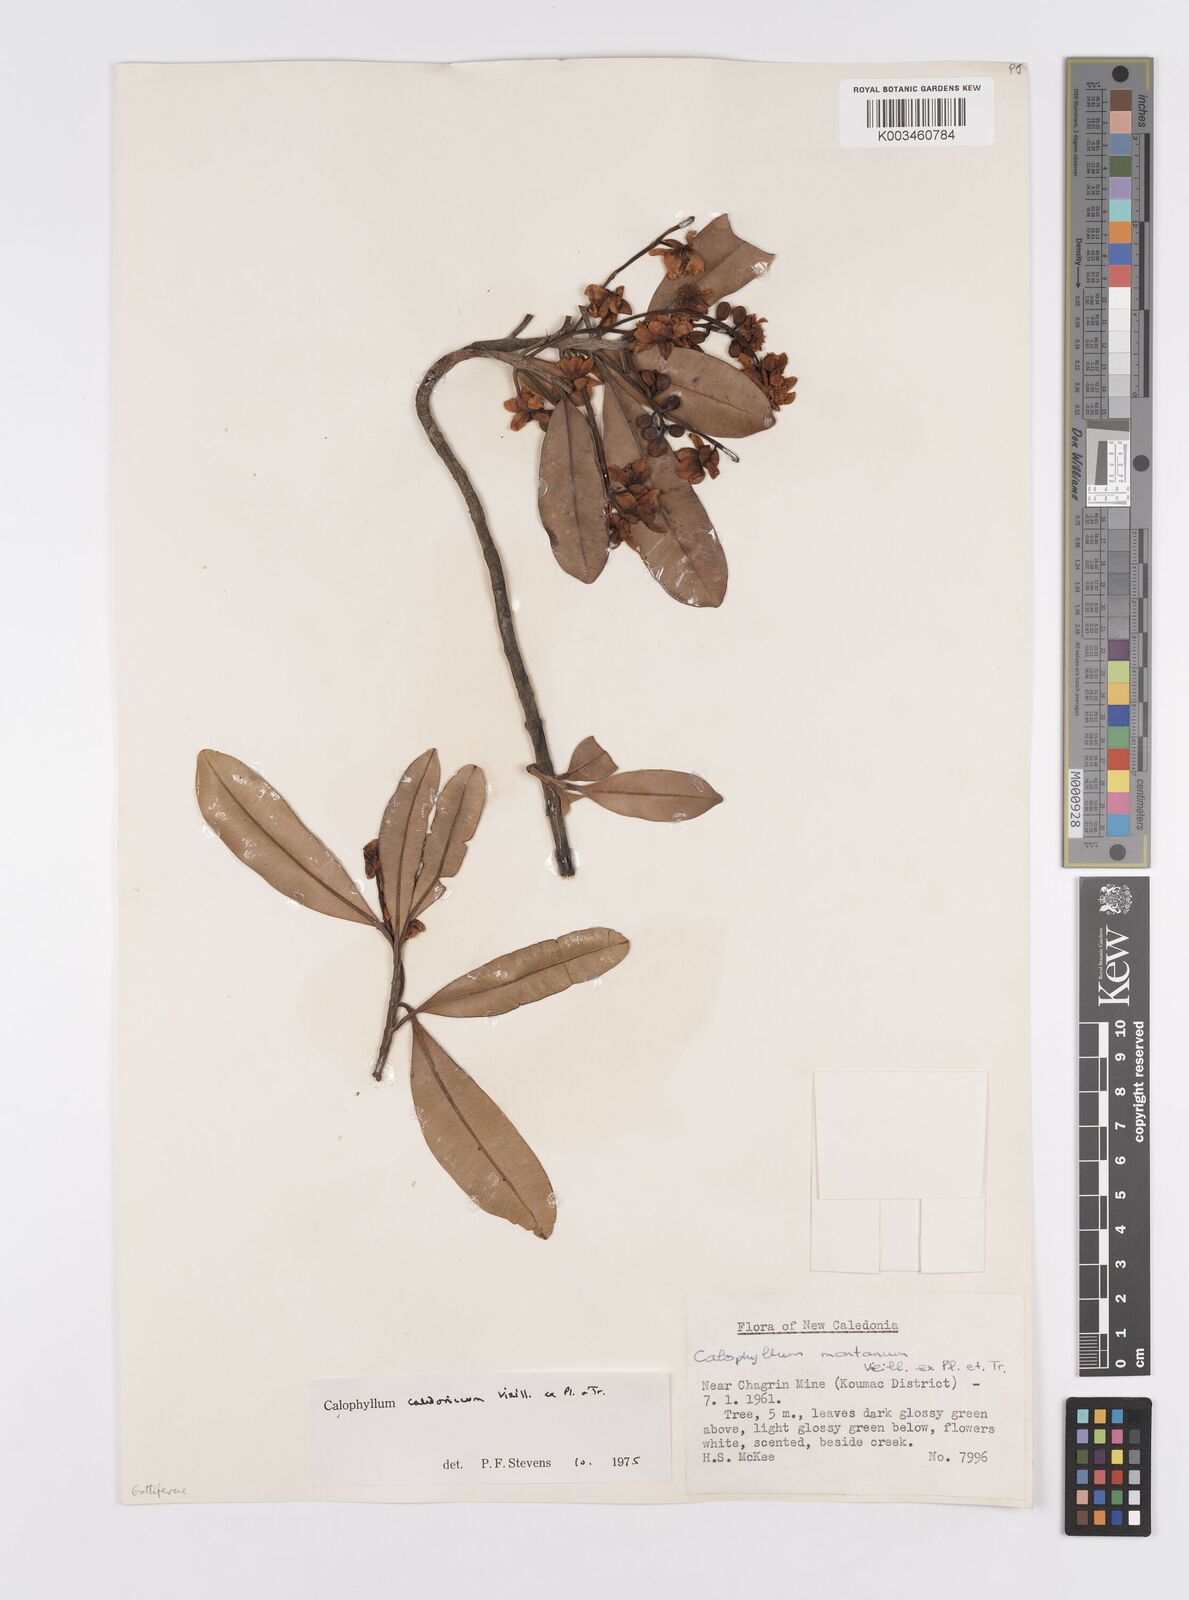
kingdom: Plantae
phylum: Tracheophyta
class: Magnoliopsida
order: Malpighiales
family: Calophyllaceae
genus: Calophyllum
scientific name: Calophyllum caledonicum
